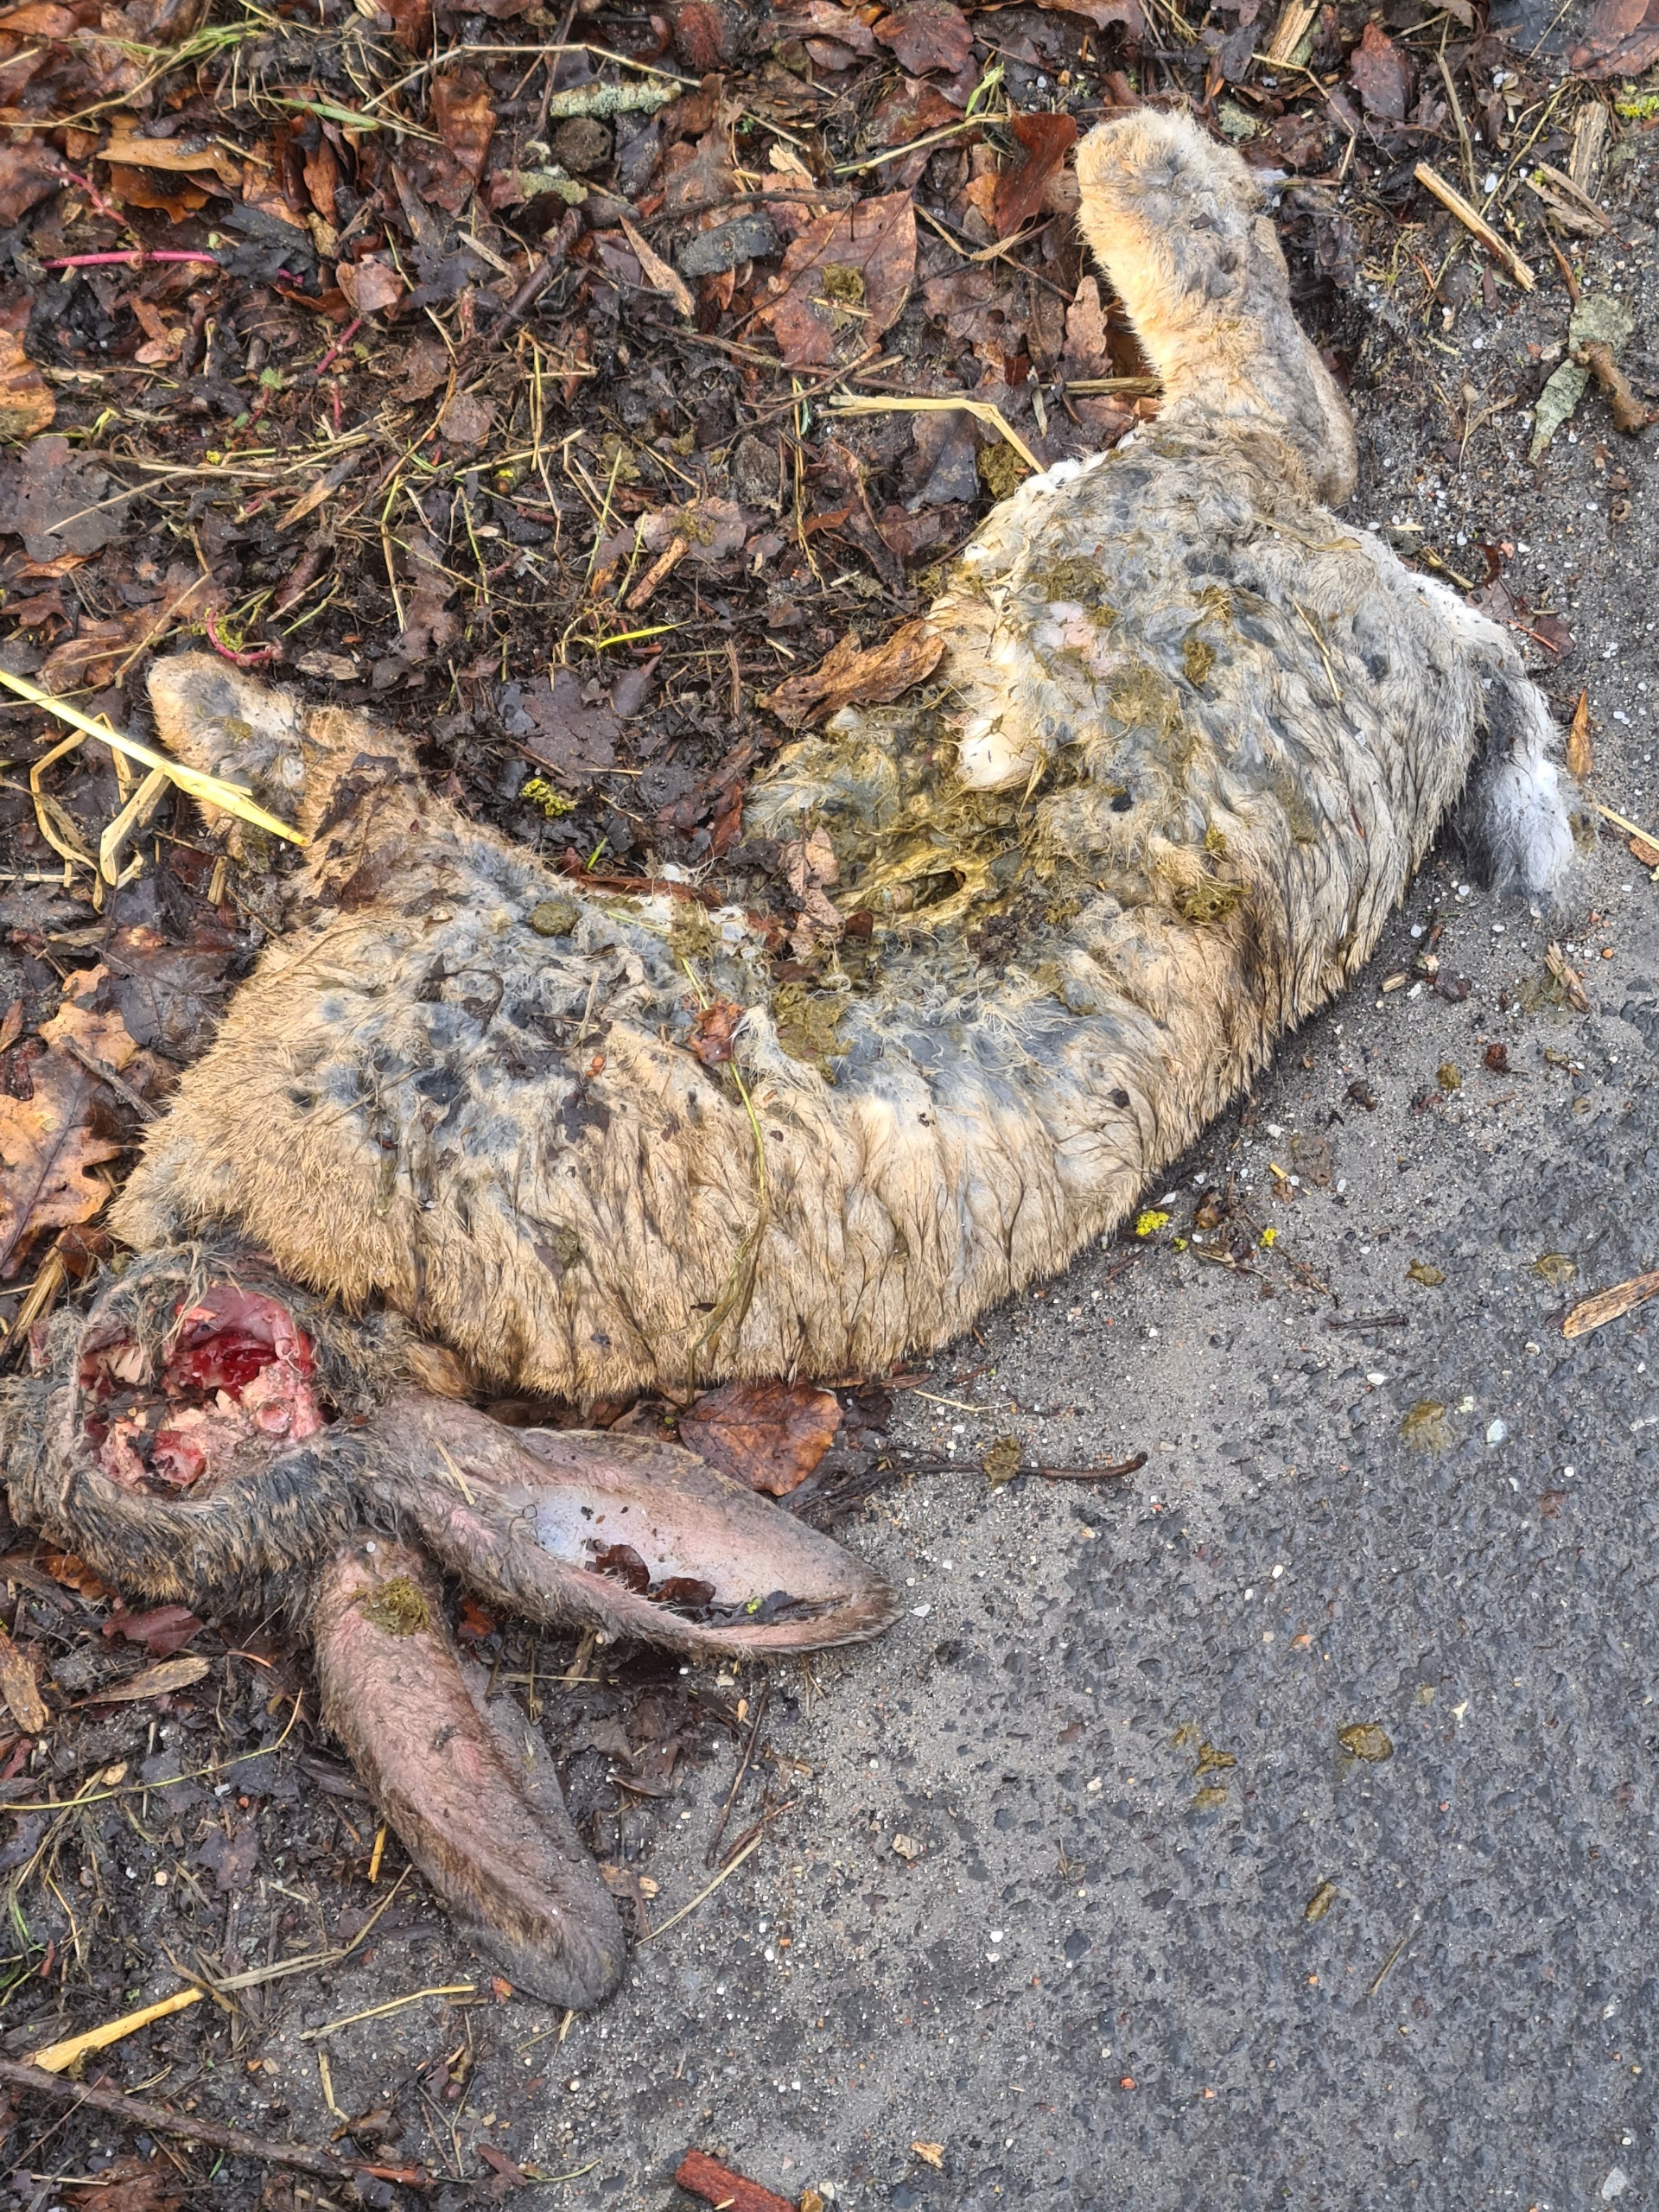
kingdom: Animalia
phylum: Chordata
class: Mammalia
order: Lagomorpha
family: Leporidae
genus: Lepus
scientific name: Lepus europaeus
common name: Hare
